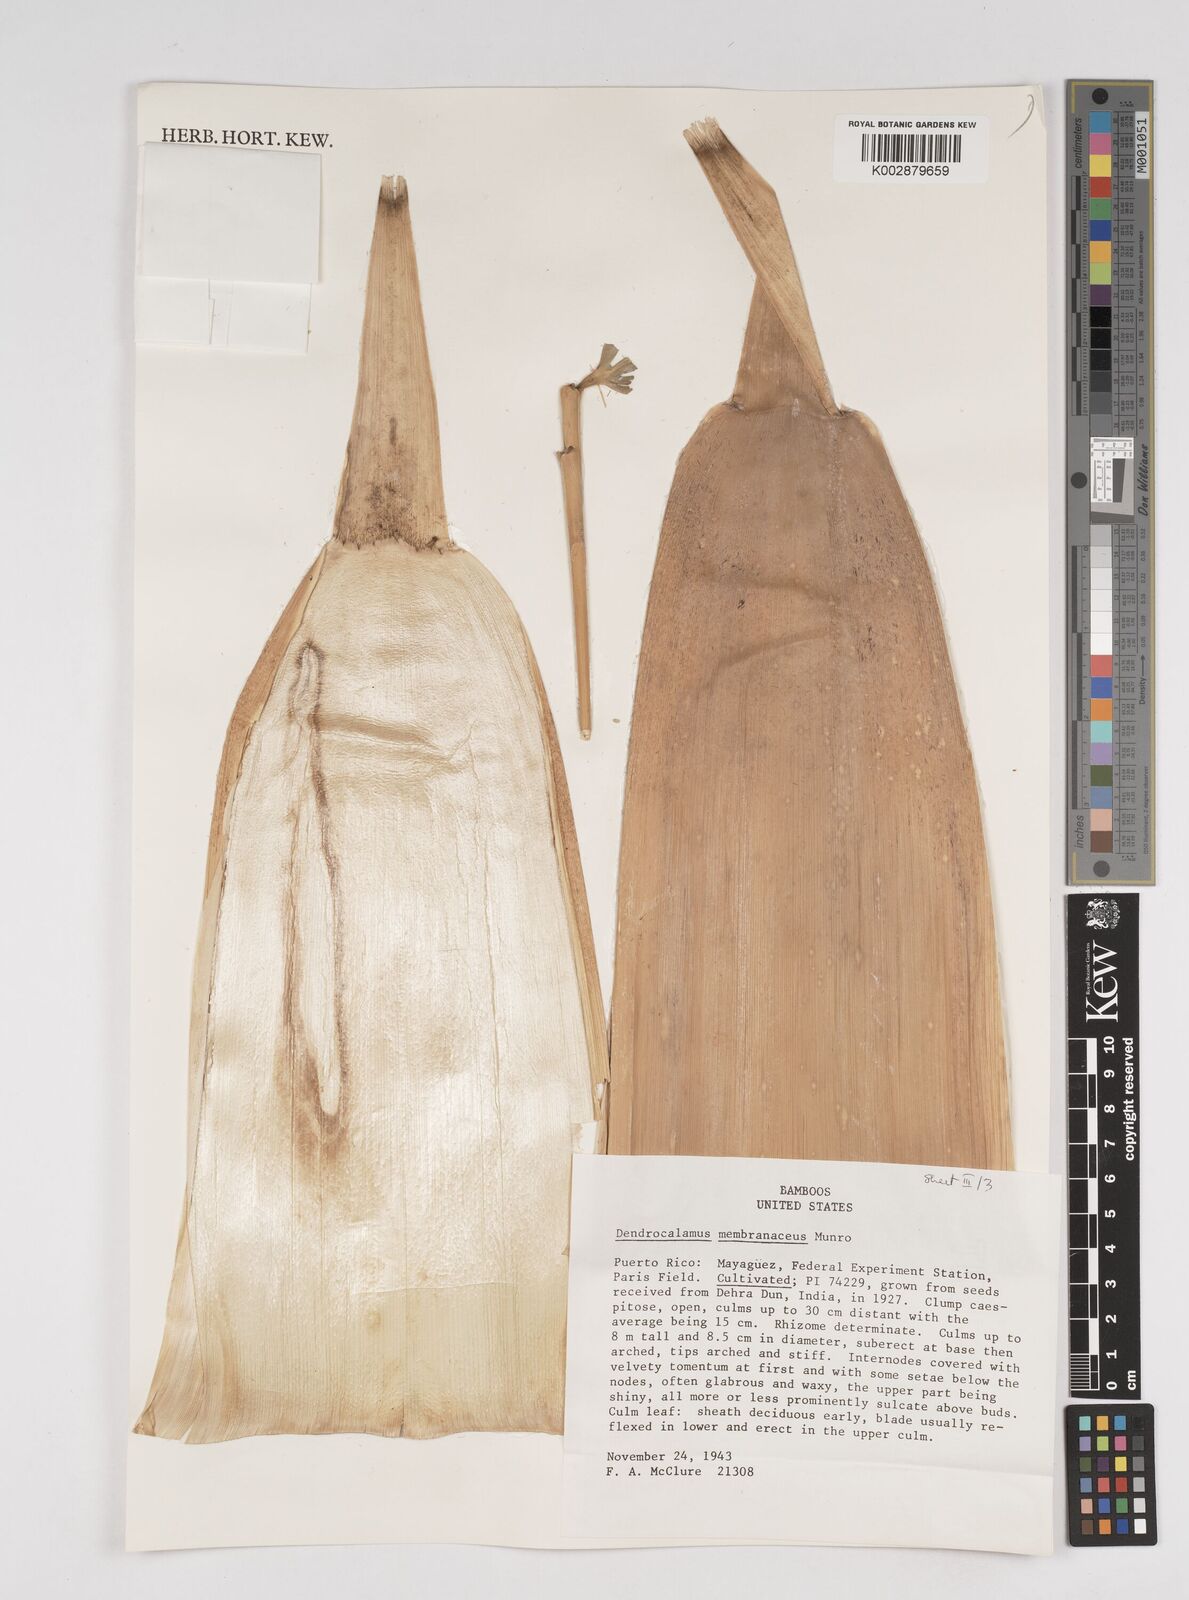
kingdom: Plantae
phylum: Tracheophyta
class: Liliopsida
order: Poales
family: Poaceae
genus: Dendrocalamus
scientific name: Dendrocalamus membranaceus
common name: White bamboo
